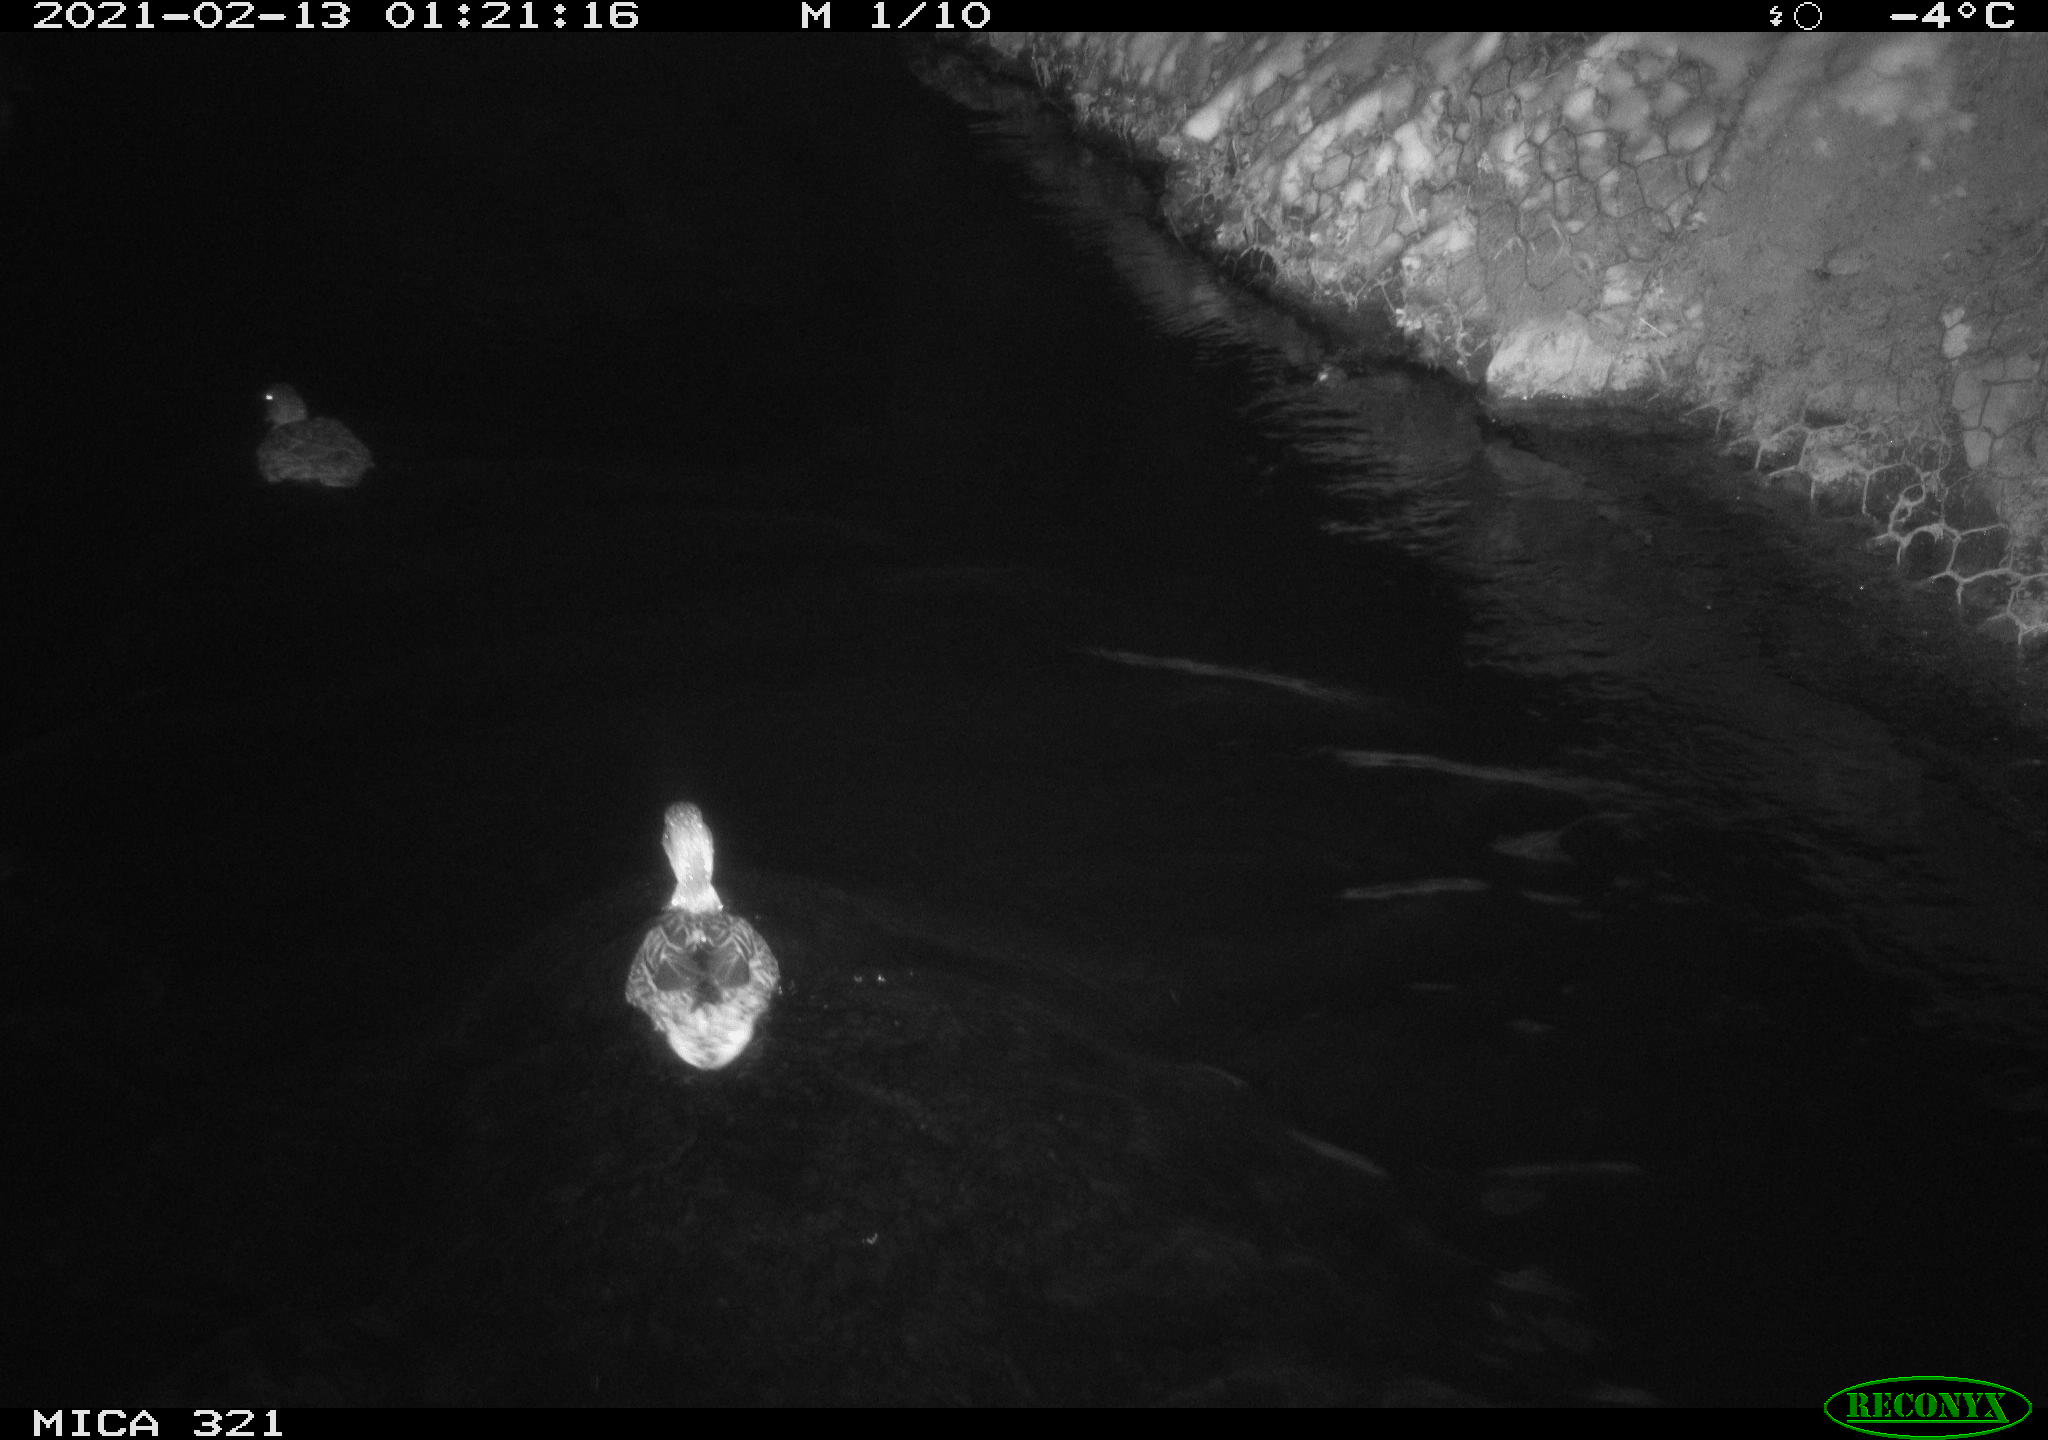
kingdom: Animalia
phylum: Chordata
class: Aves
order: Anseriformes
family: Anatidae
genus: Anas
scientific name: Anas platyrhynchos
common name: Mallard
